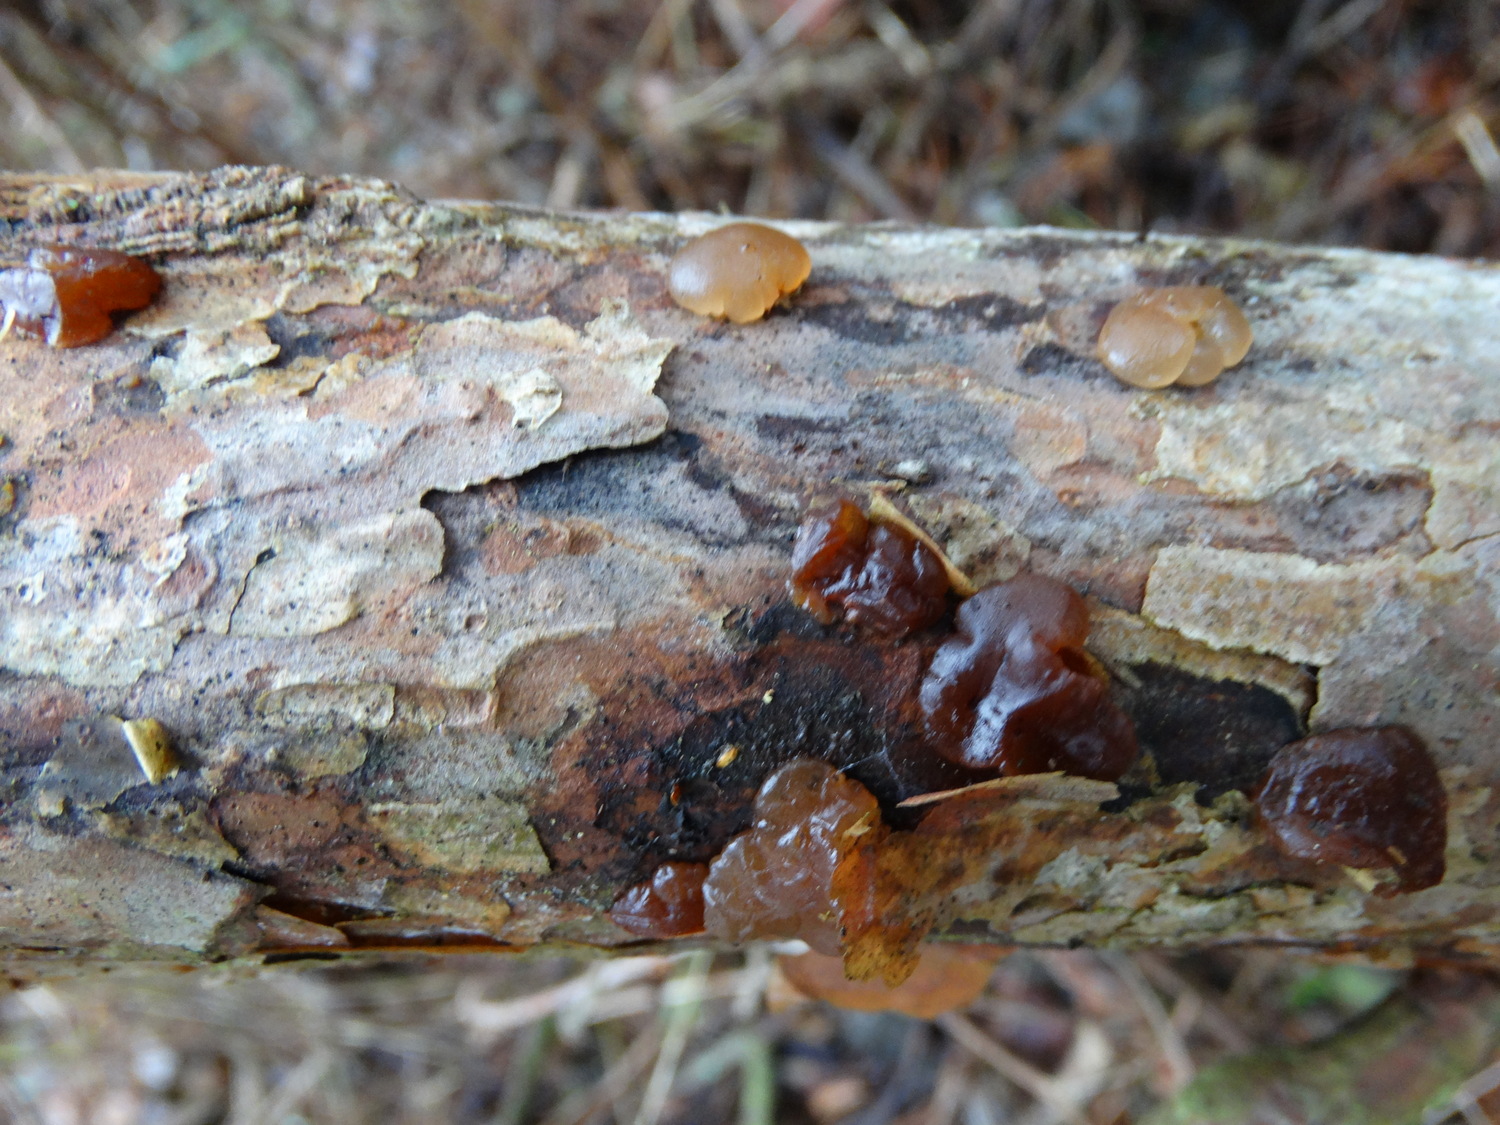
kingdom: Fungi
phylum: Basidiomycota
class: Agaricomycetes
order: Auriculariales
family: Auriculariaceae
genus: Exidia
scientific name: Exidia saccharina
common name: kandis-bævretop
